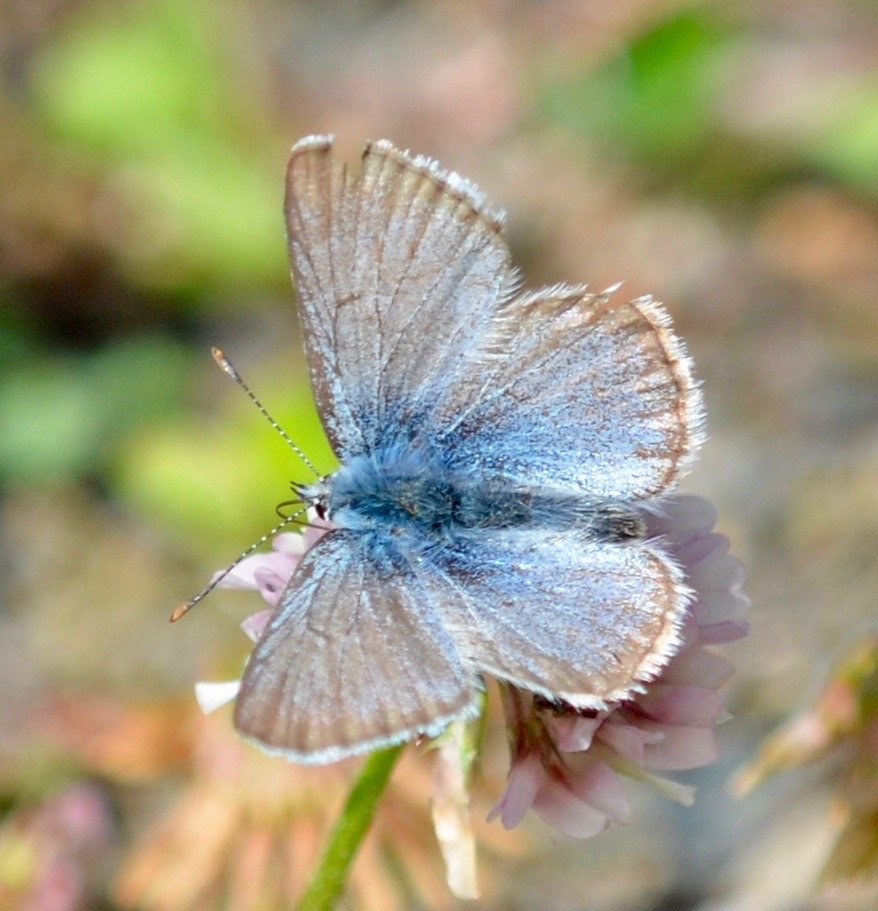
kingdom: Animalia
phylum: Arthropoda
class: Insecta
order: Lepidoptera
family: Lycaenidae
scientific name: Lycaenidae
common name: Blues
